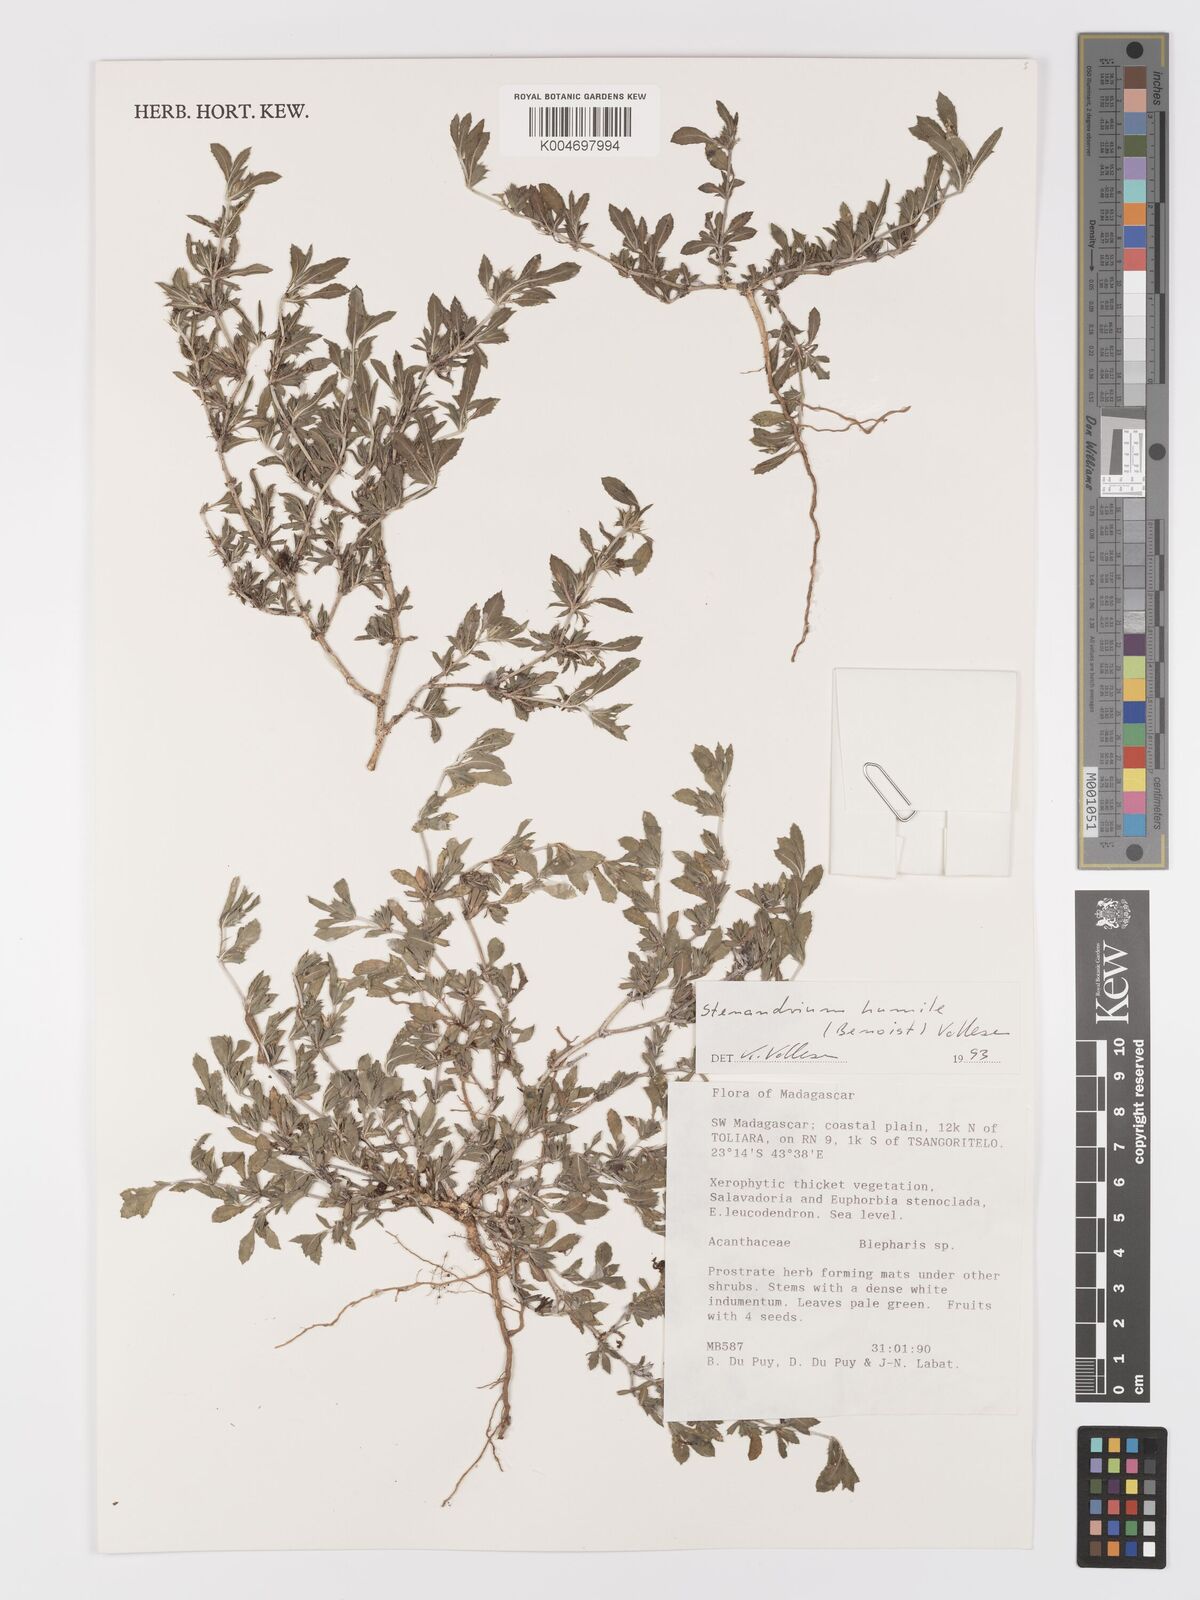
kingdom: Plantae
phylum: Tracheophyta
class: Magnoliopsida
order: Lamiales
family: Acanthaceae
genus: Stenandriopsis
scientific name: Stenandriopsis keraudrenae
